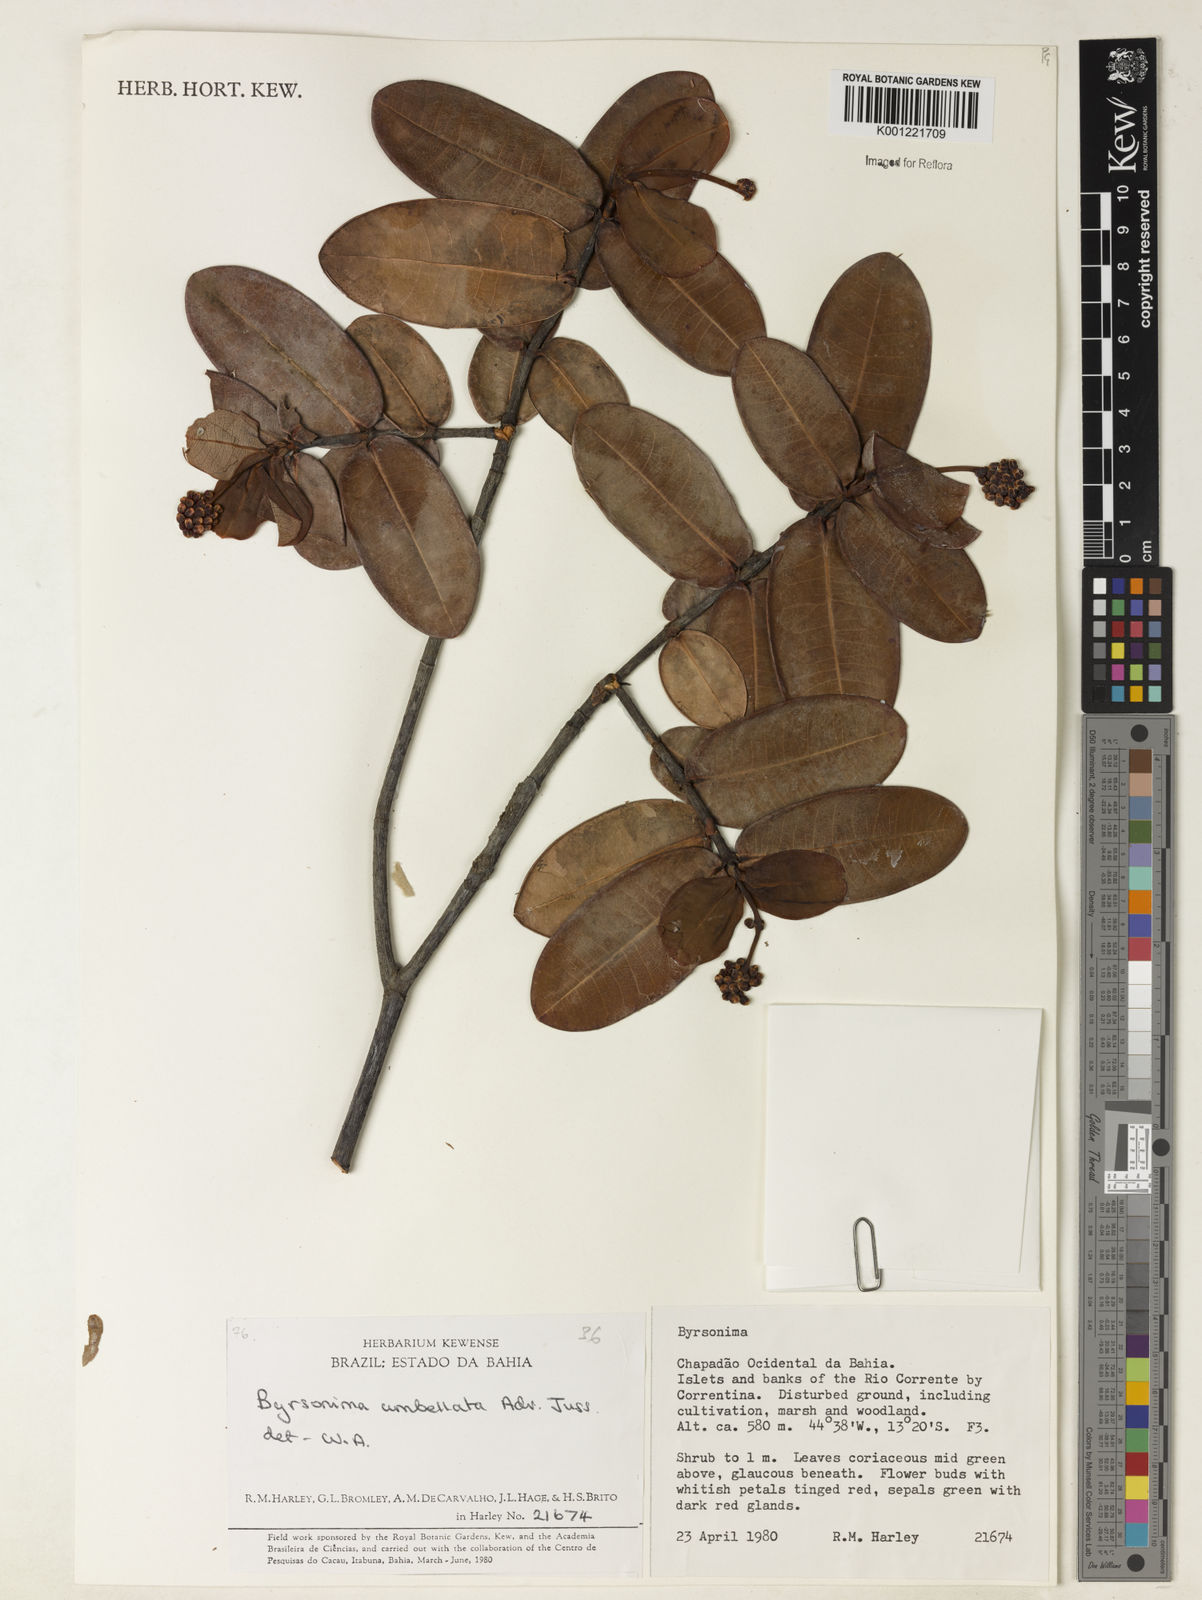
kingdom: Plantae
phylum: Tracheophyta
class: Magnoliopsida
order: Malpighiales
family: Malpighiaceae
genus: Byrsonima
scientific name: Byrsonima umbellata
